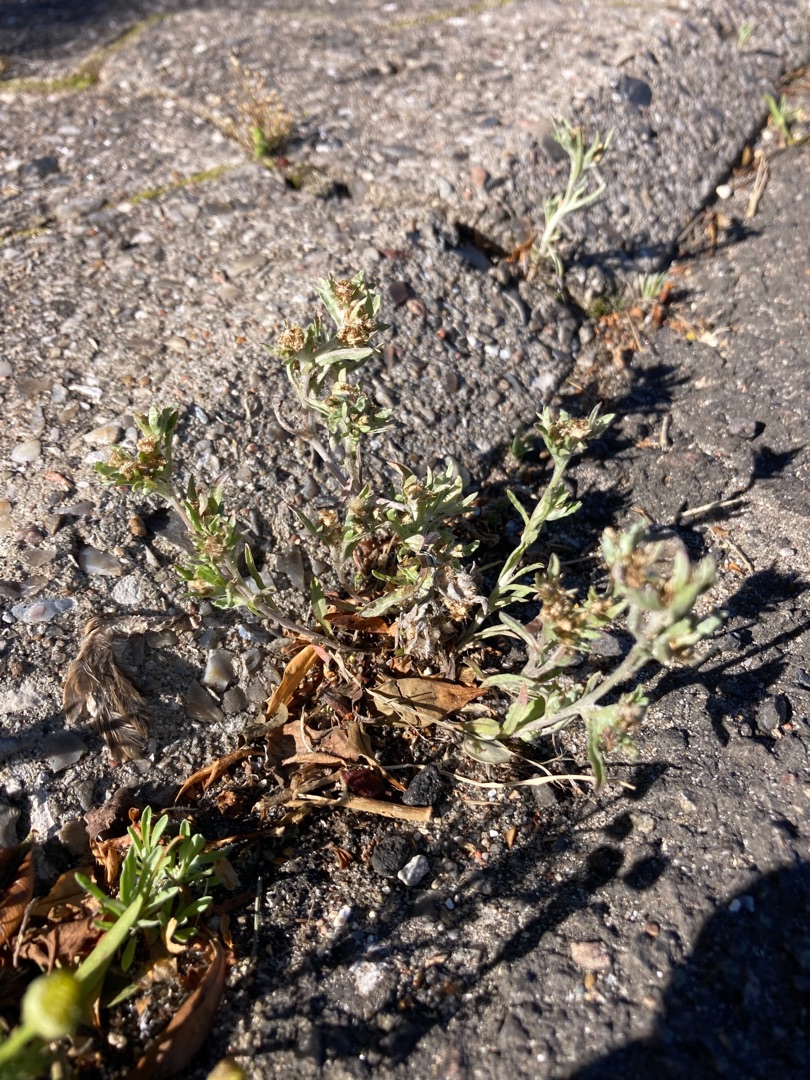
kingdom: Plantae
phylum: Tracheophyta
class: Magnoliopsida
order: Asterales
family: Asteraceae
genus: Gnaphalium
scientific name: Gnaphalium uliginosum
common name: Sump-evighedsblomst
